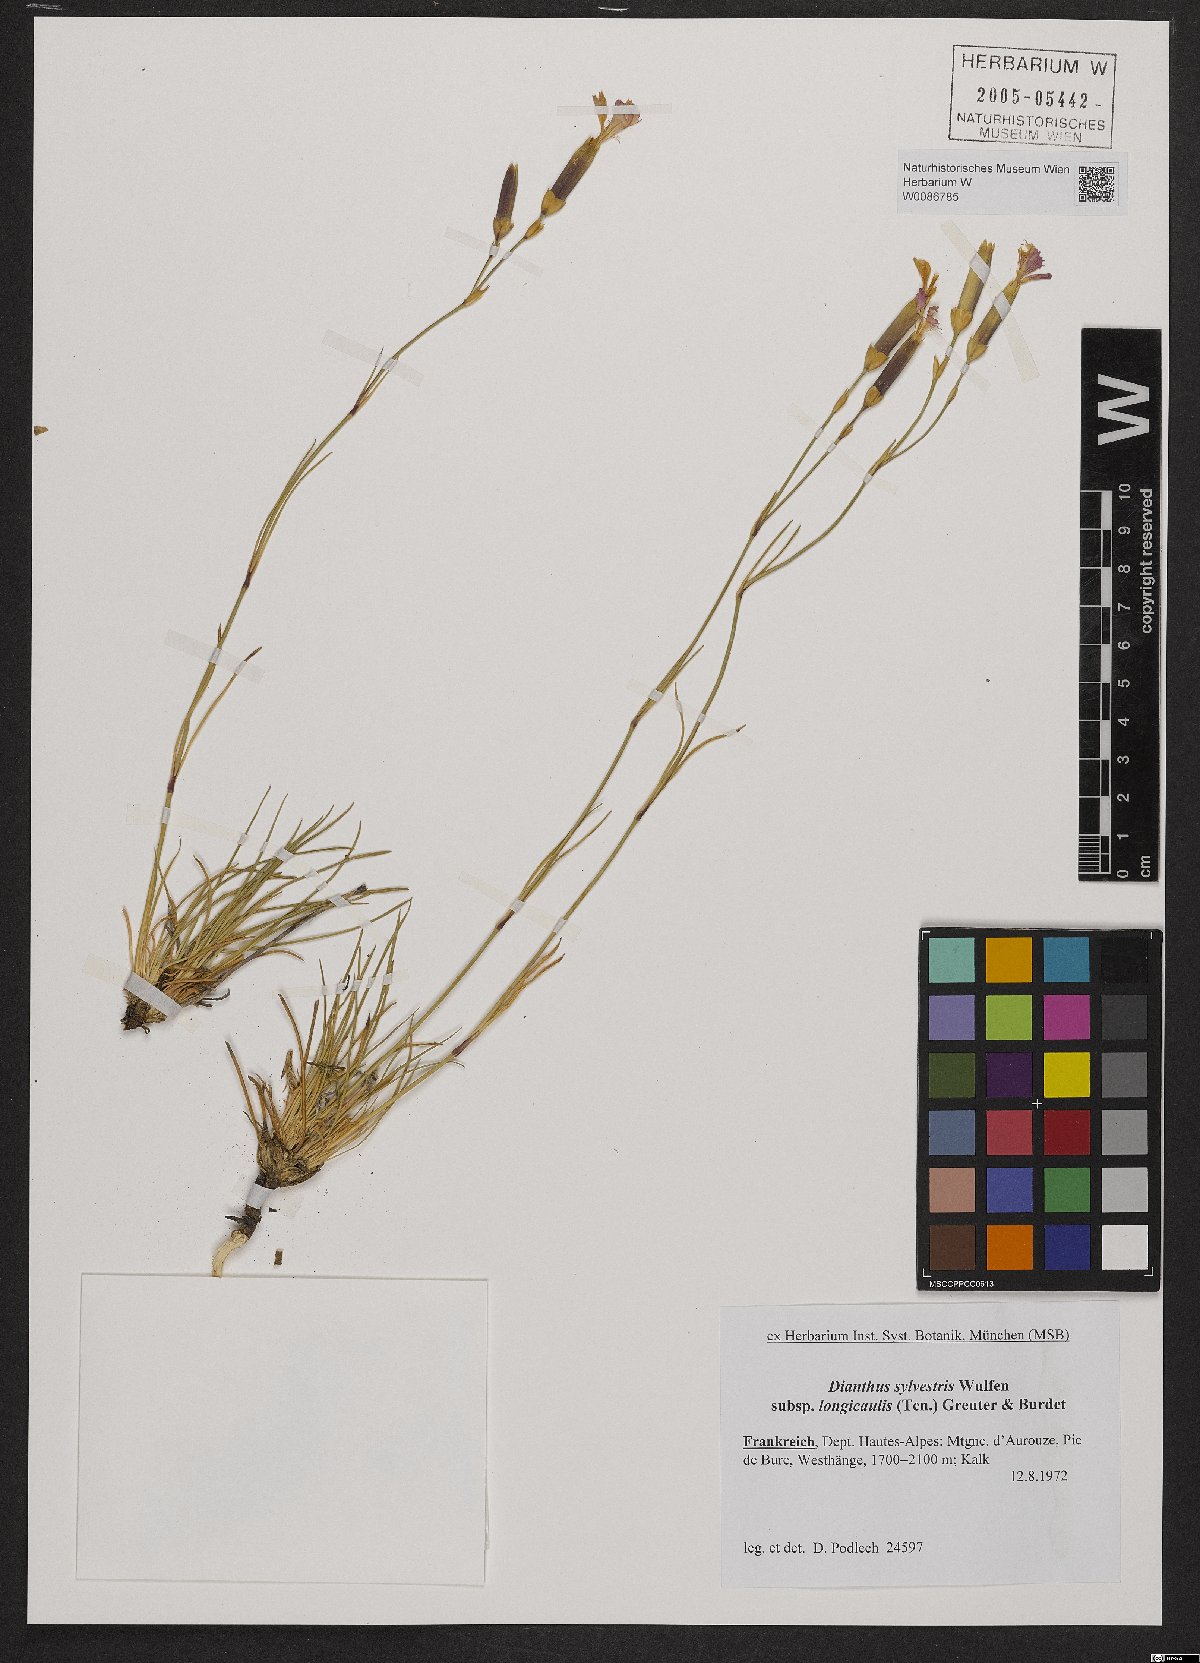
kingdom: Plantae
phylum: Tracheophyta
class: Magnoliopsida
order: Caryophyllales
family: Caryophyllaceae
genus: Dianthus
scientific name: Dianthus virgineus
